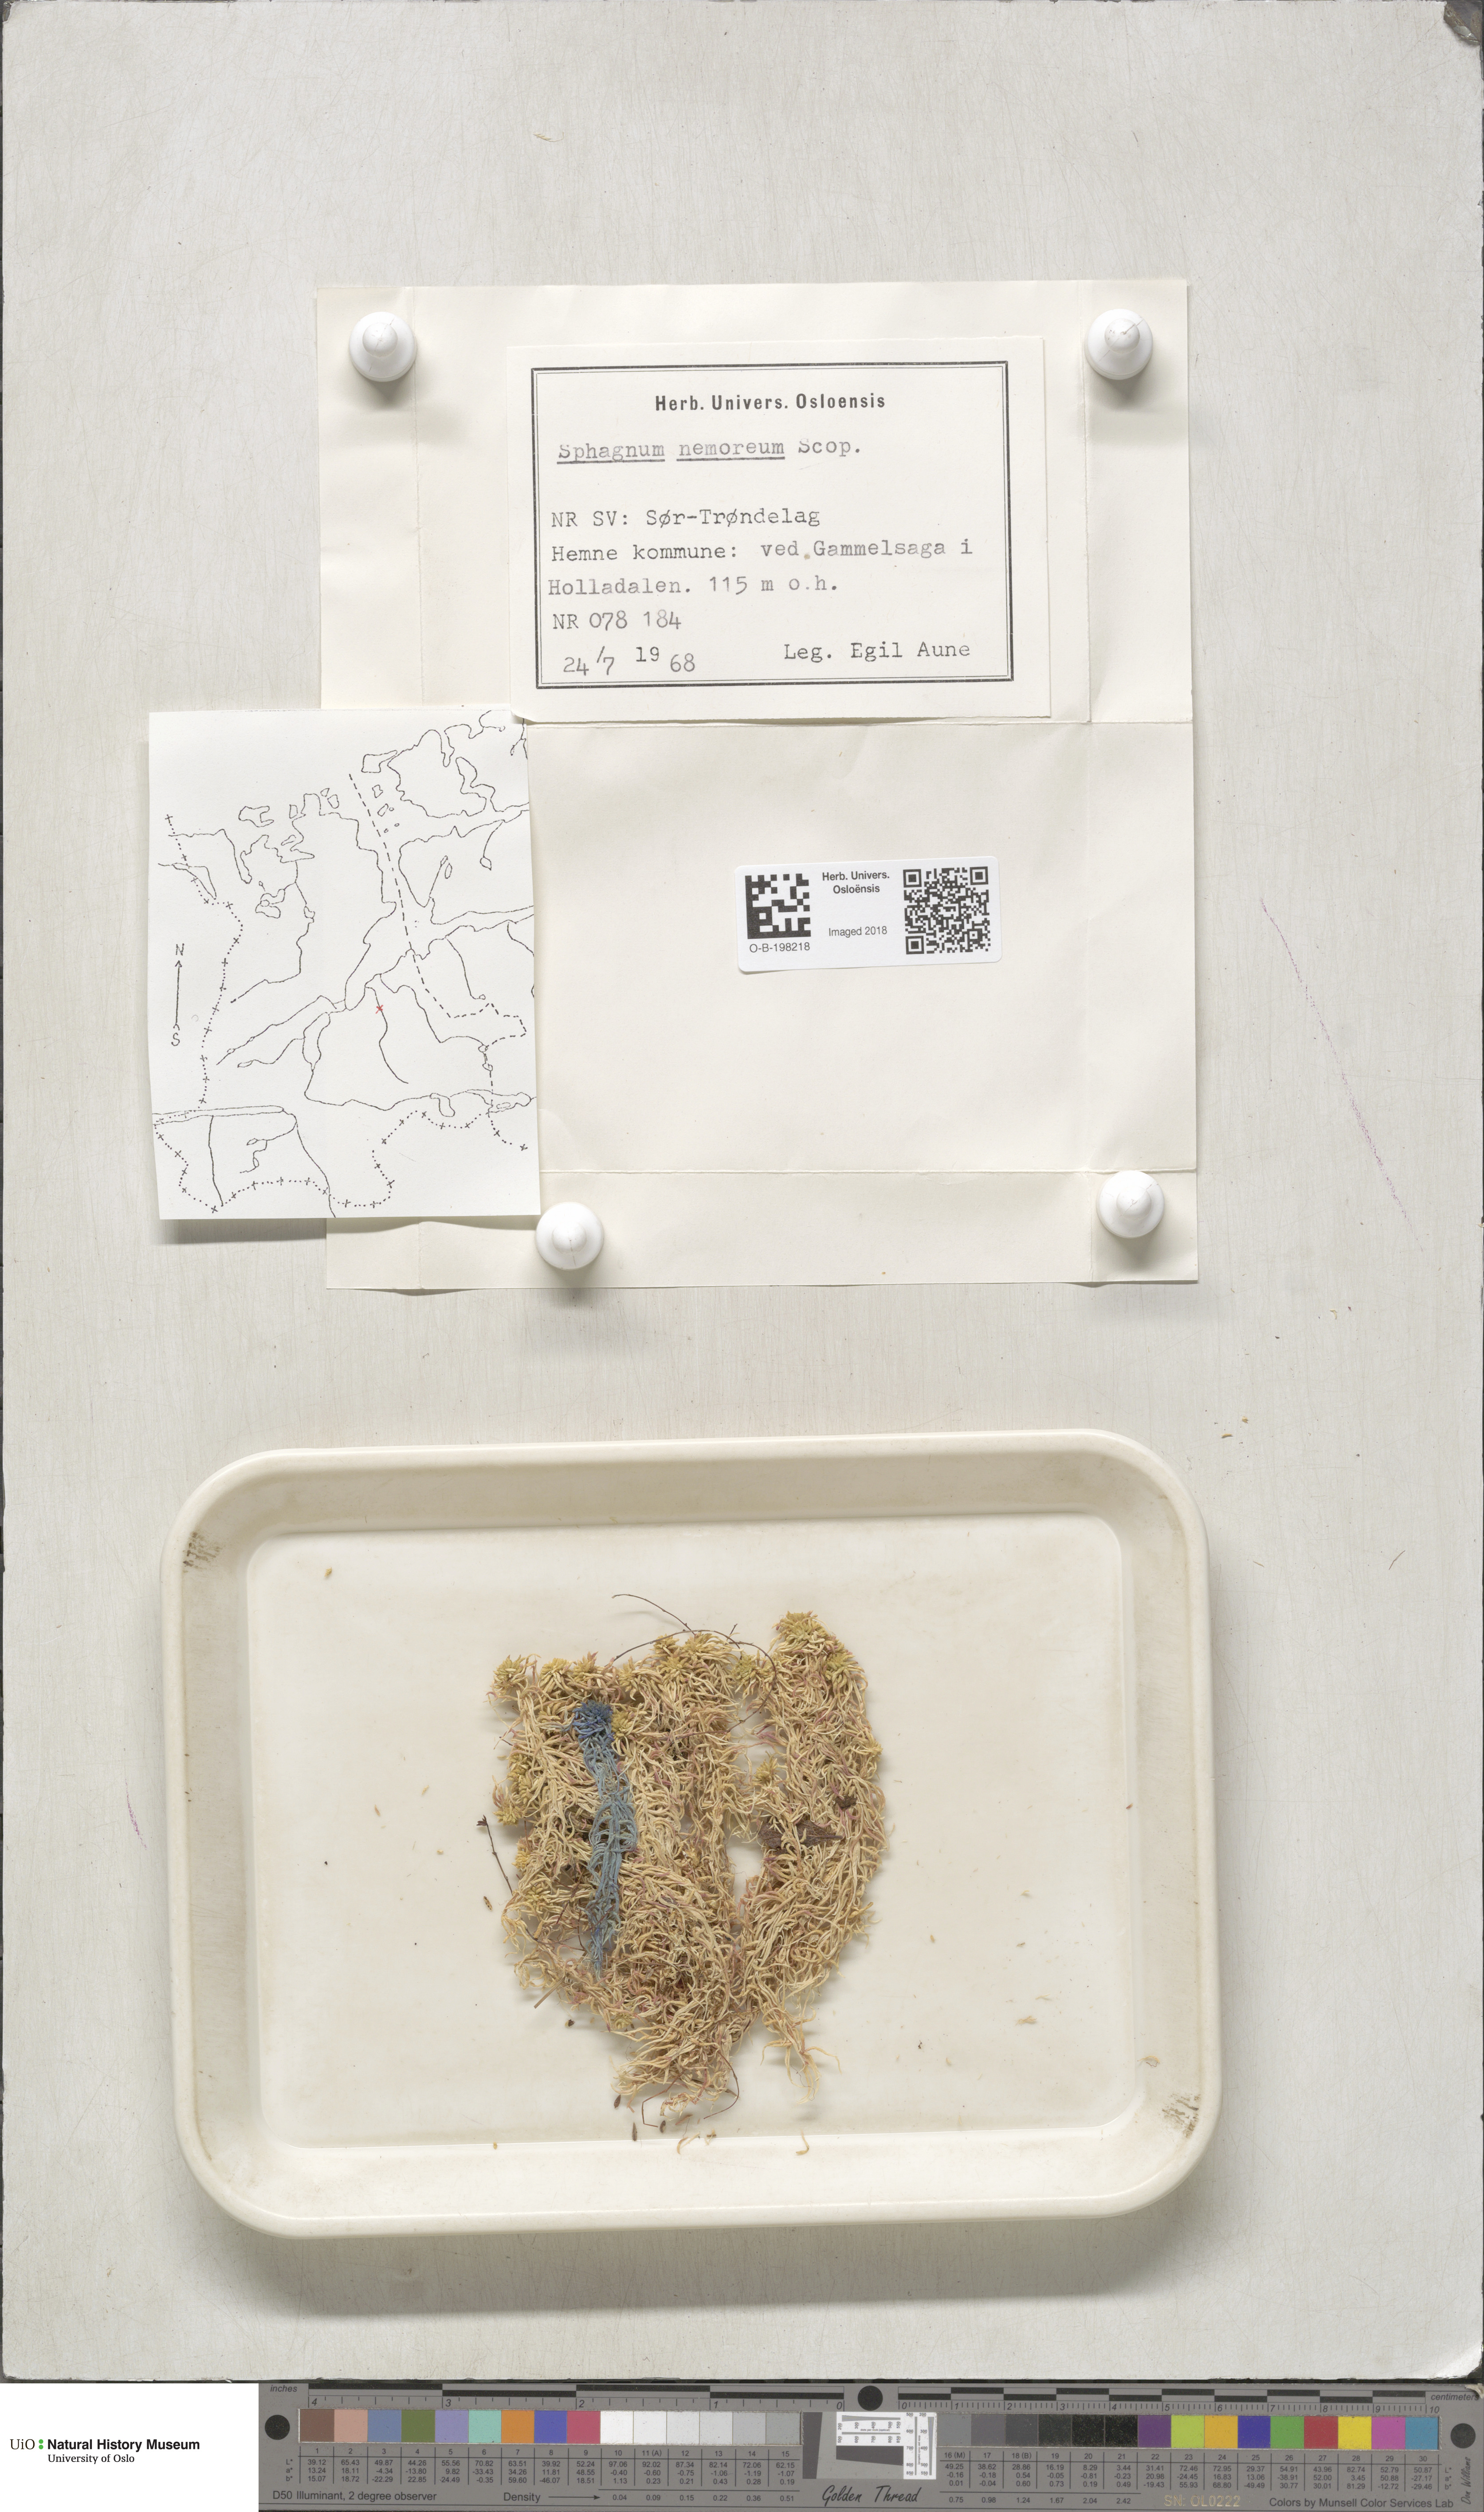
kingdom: Plantae
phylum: Bryophyta
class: Sphagnopsida
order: Sphagnales
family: Sphagnaceae
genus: Sphagnum
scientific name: Sphagnum capillifolium
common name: Small red peat moss
